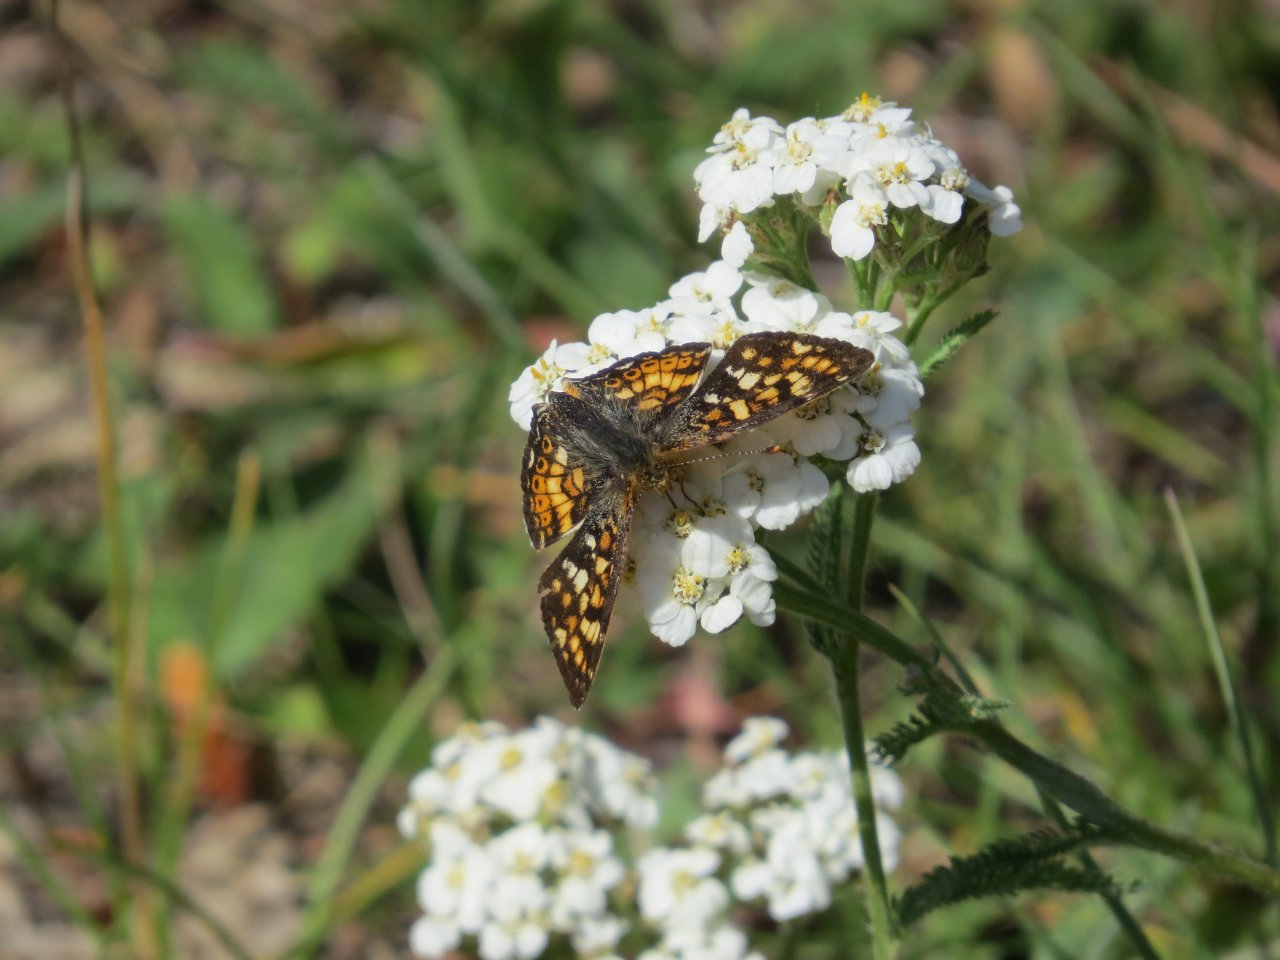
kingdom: Animalia
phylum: Arthropoda
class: Insecta
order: Lepidoptera
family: Nymphalidae
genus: Phyciodes
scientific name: Phyciodes tharos
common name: Field Crescent
